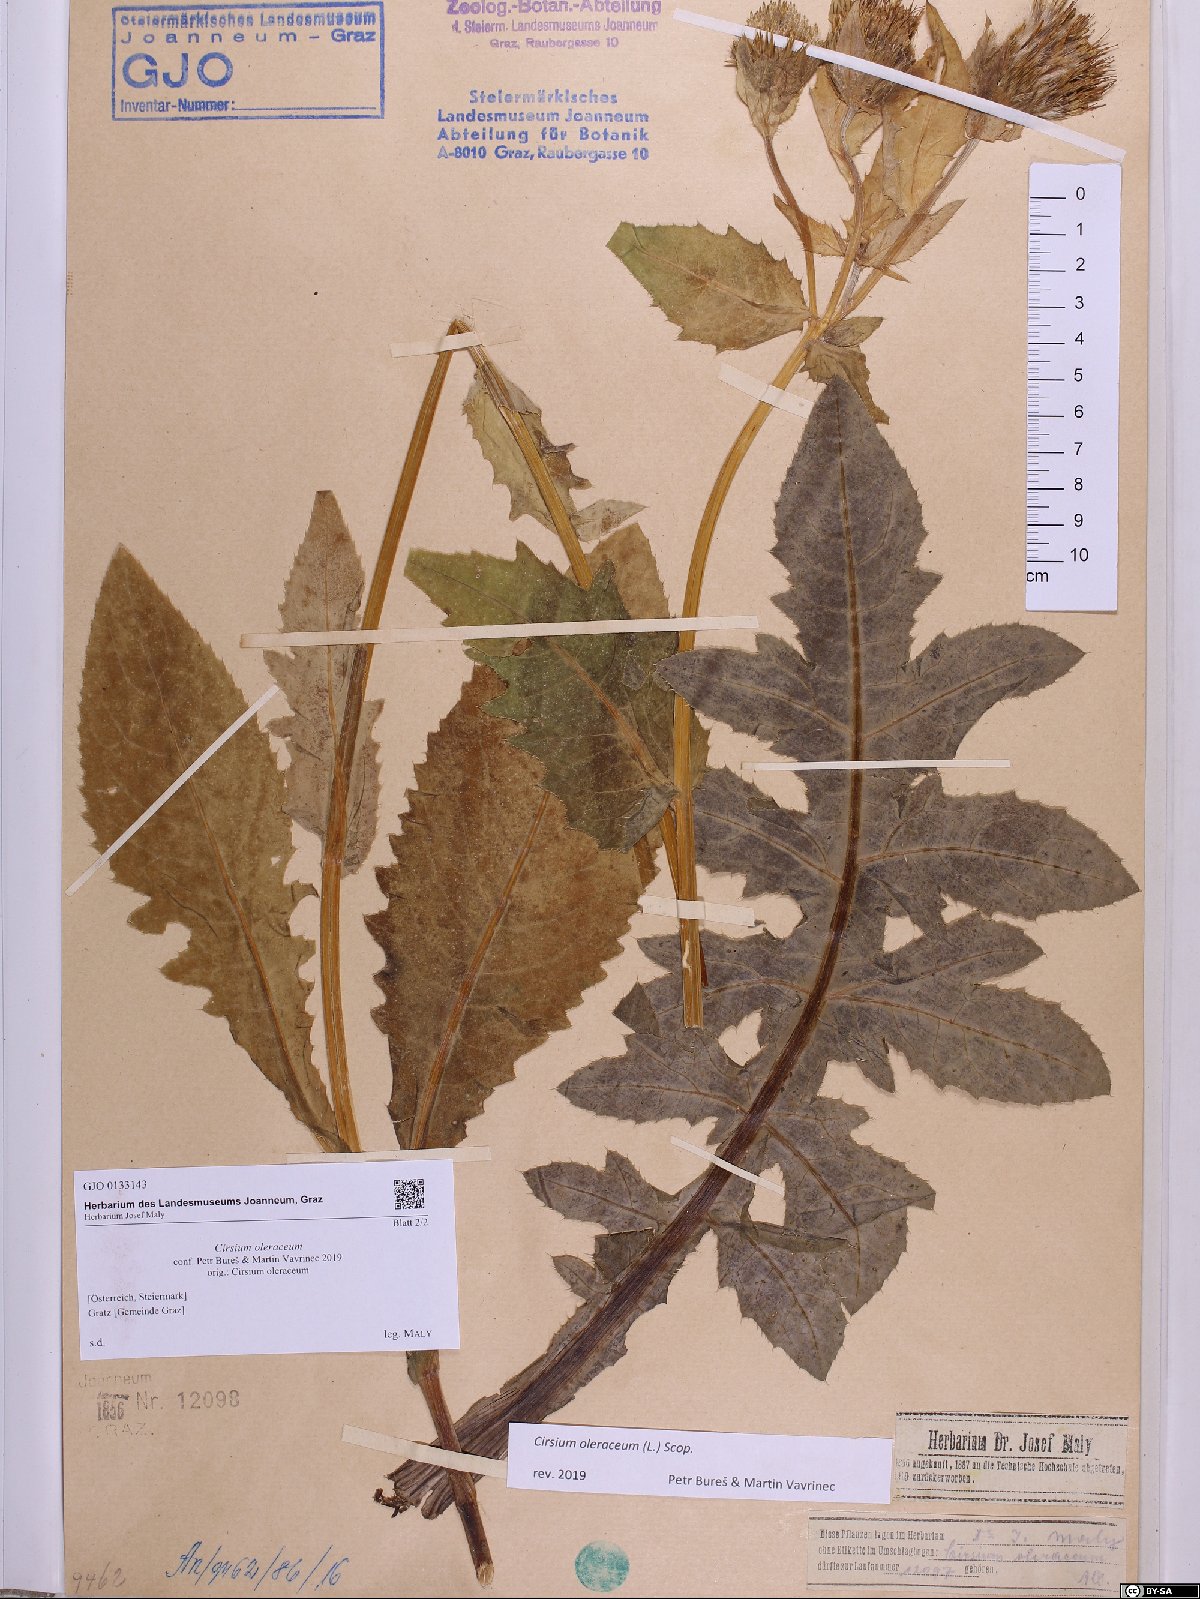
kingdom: Plantae
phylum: Tracheophyta
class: Magnoliopsida
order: Asterales
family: Asteraceae
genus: Cirsium
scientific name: Cirsium oleraceum
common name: Cabbage thistle
